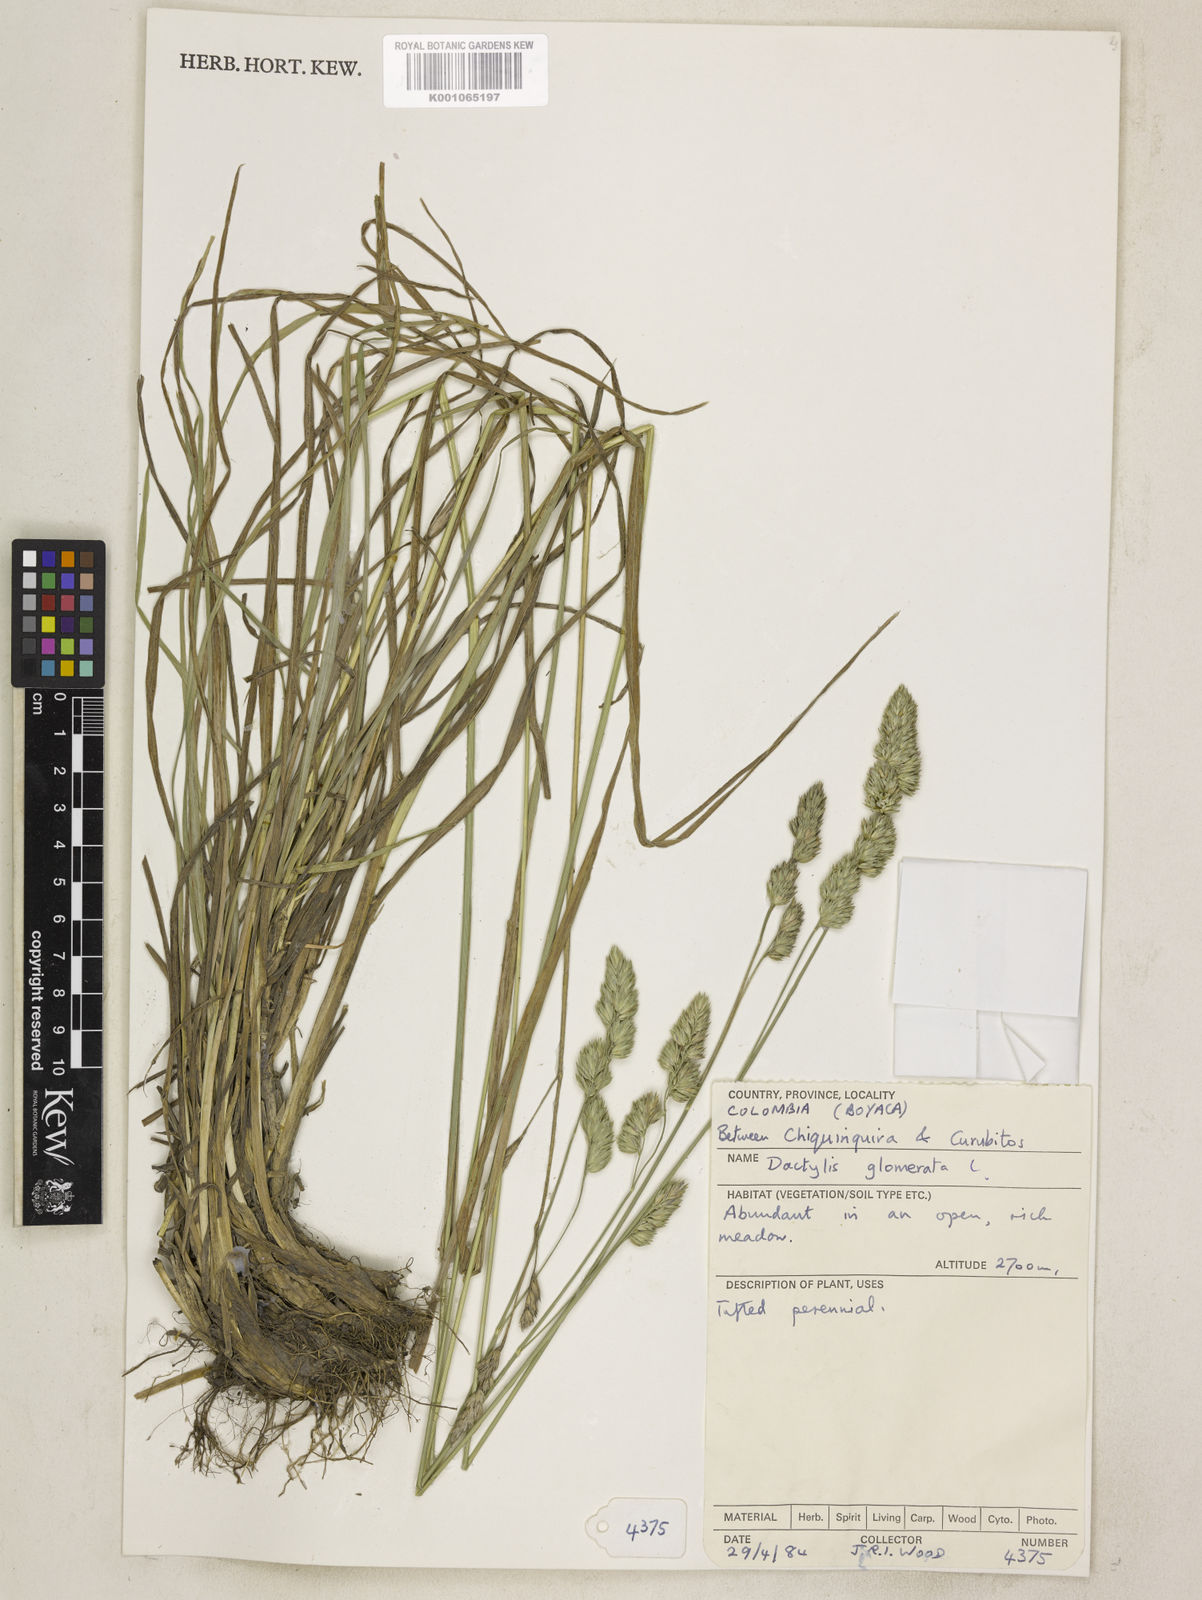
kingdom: Plantae
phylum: Tracheophyta
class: Liliopsida
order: Poales
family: Poaceae
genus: Dactylis
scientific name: Dactylis glomerata
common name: Orchardgrass
